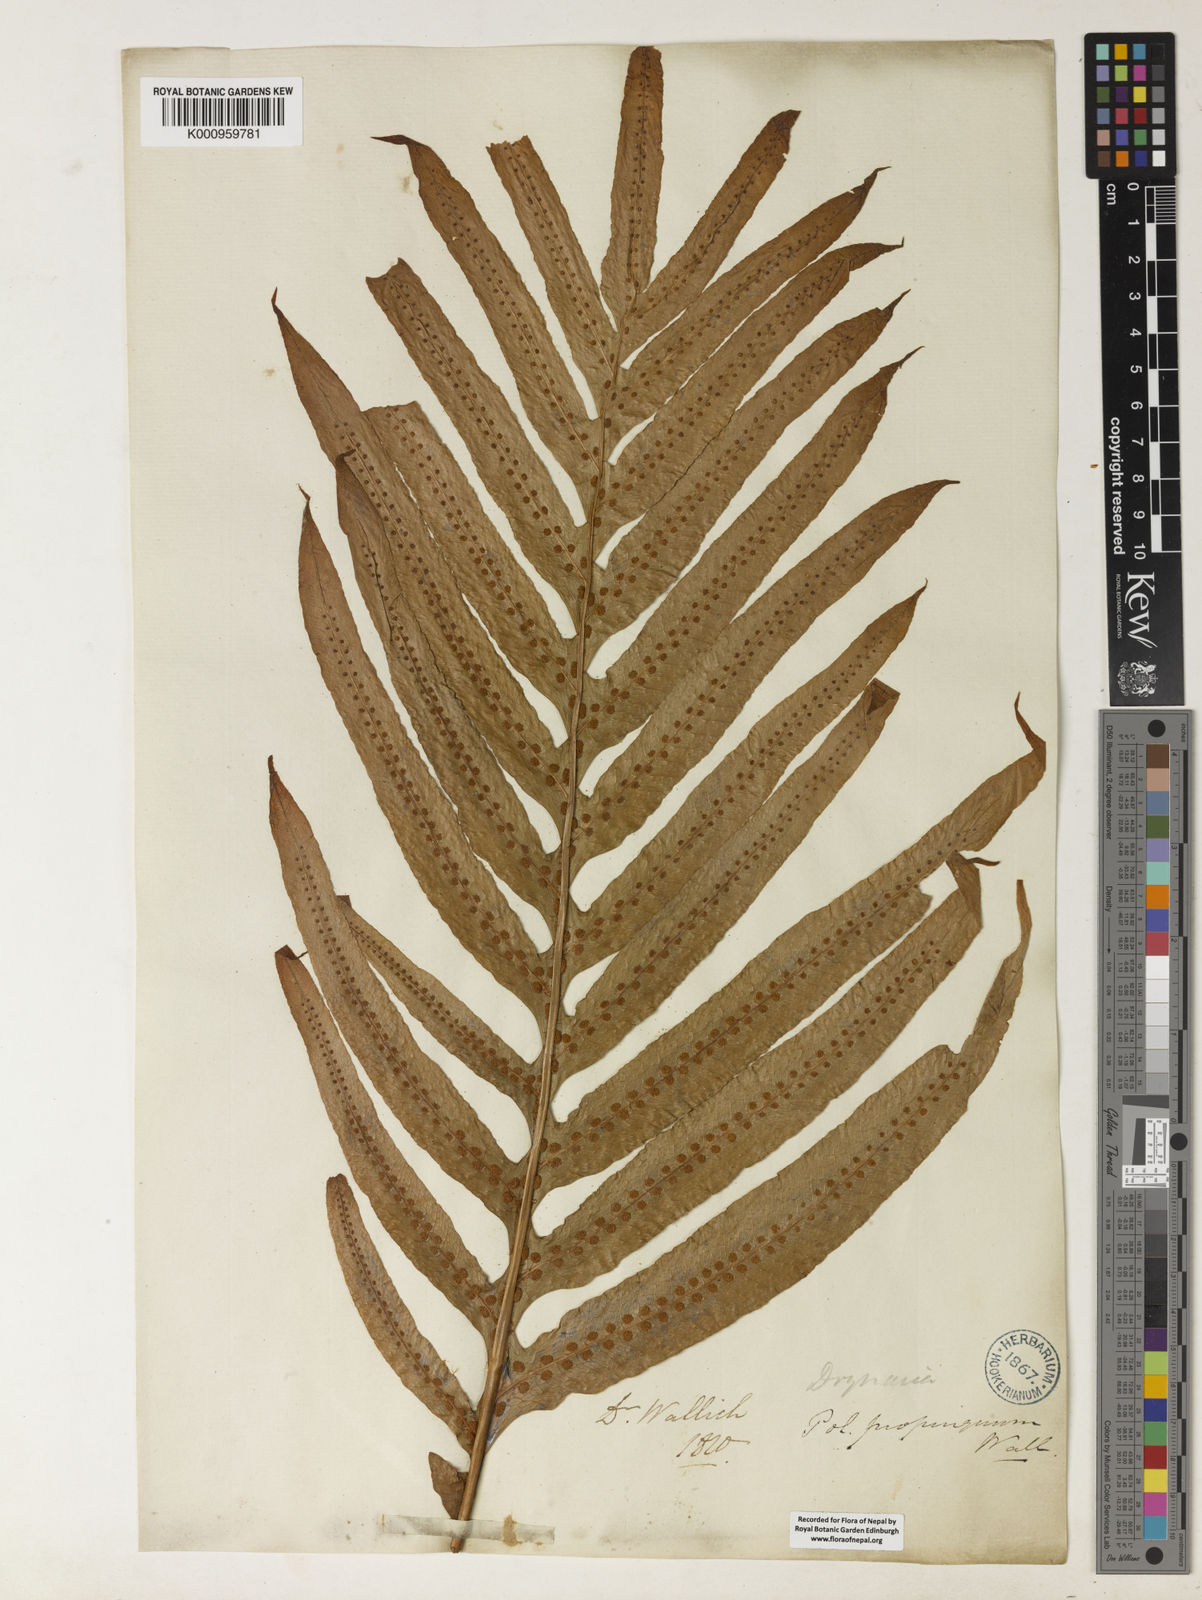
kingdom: Plantae
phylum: Tracheophyta
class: Polypodiopsida
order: Polypodiales
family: Polypodiaceae
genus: Drynaria
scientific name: Drynaria
